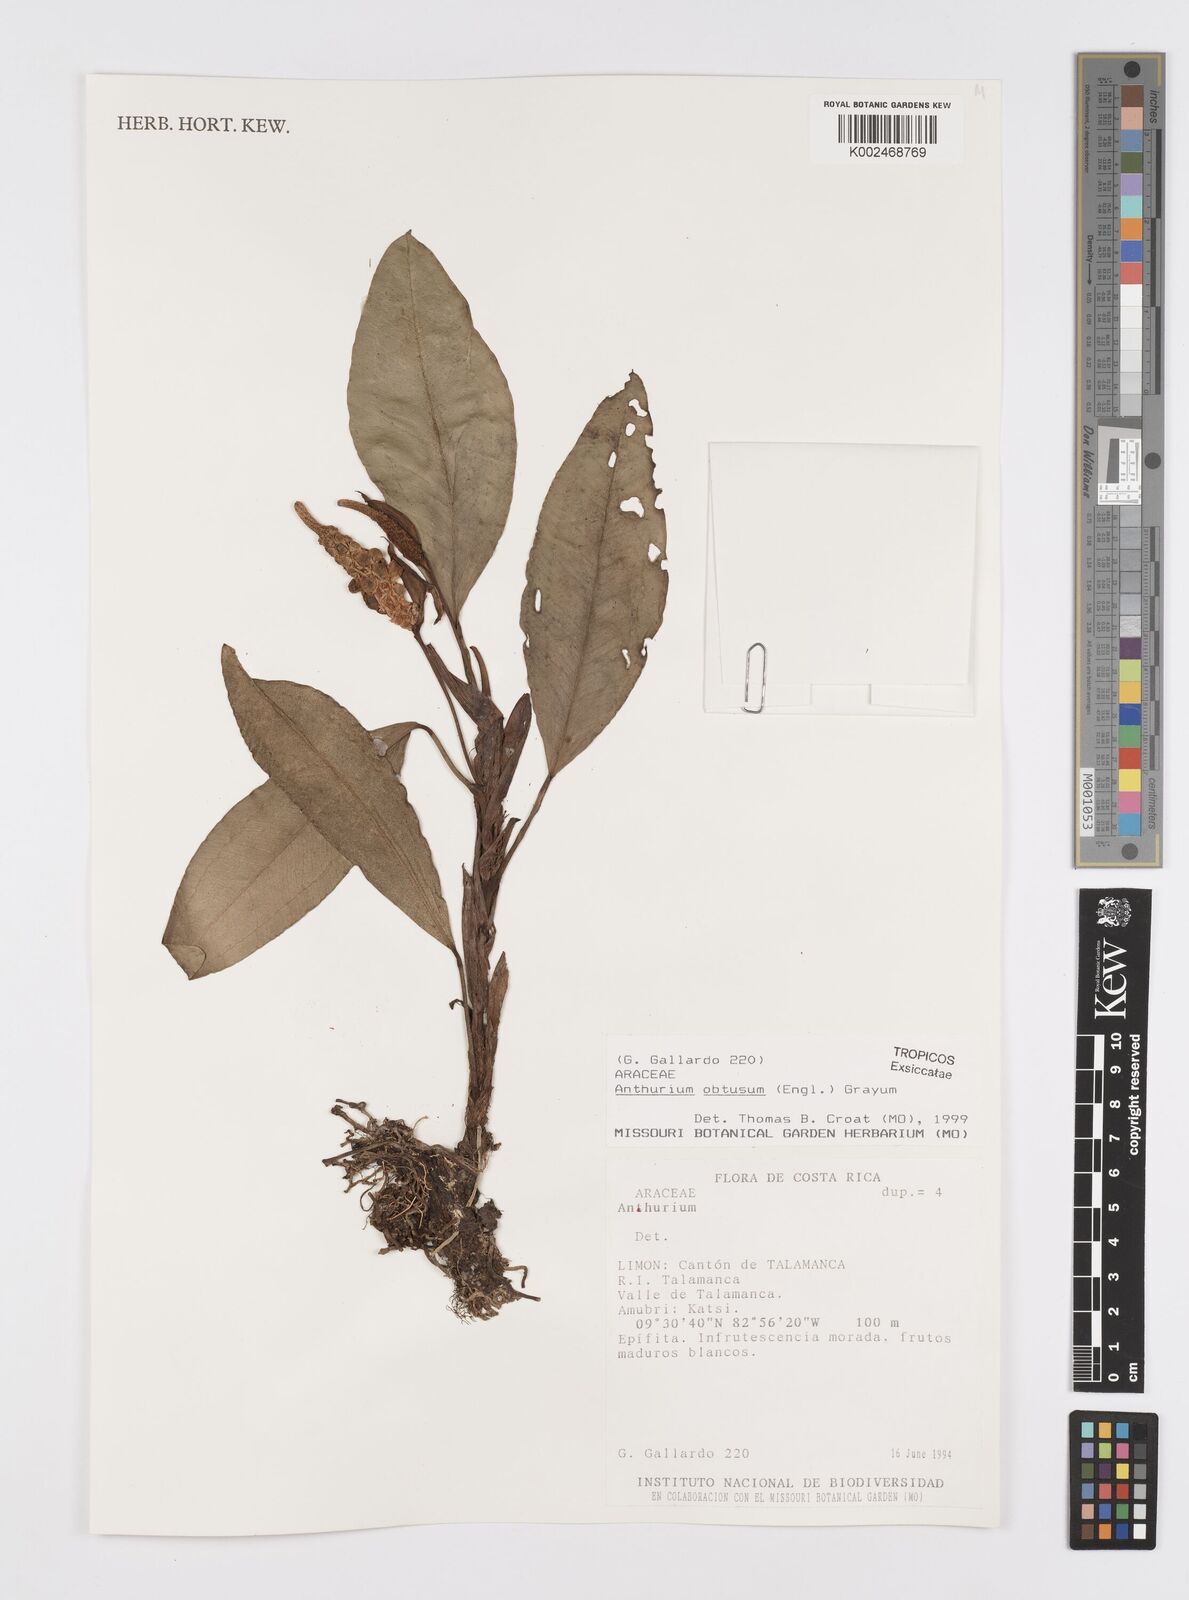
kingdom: Plantae
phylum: Tracheophyta
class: Liliopsida
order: Alismatales
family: Araceae
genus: Anthurium
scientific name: Anthurium obtusum
